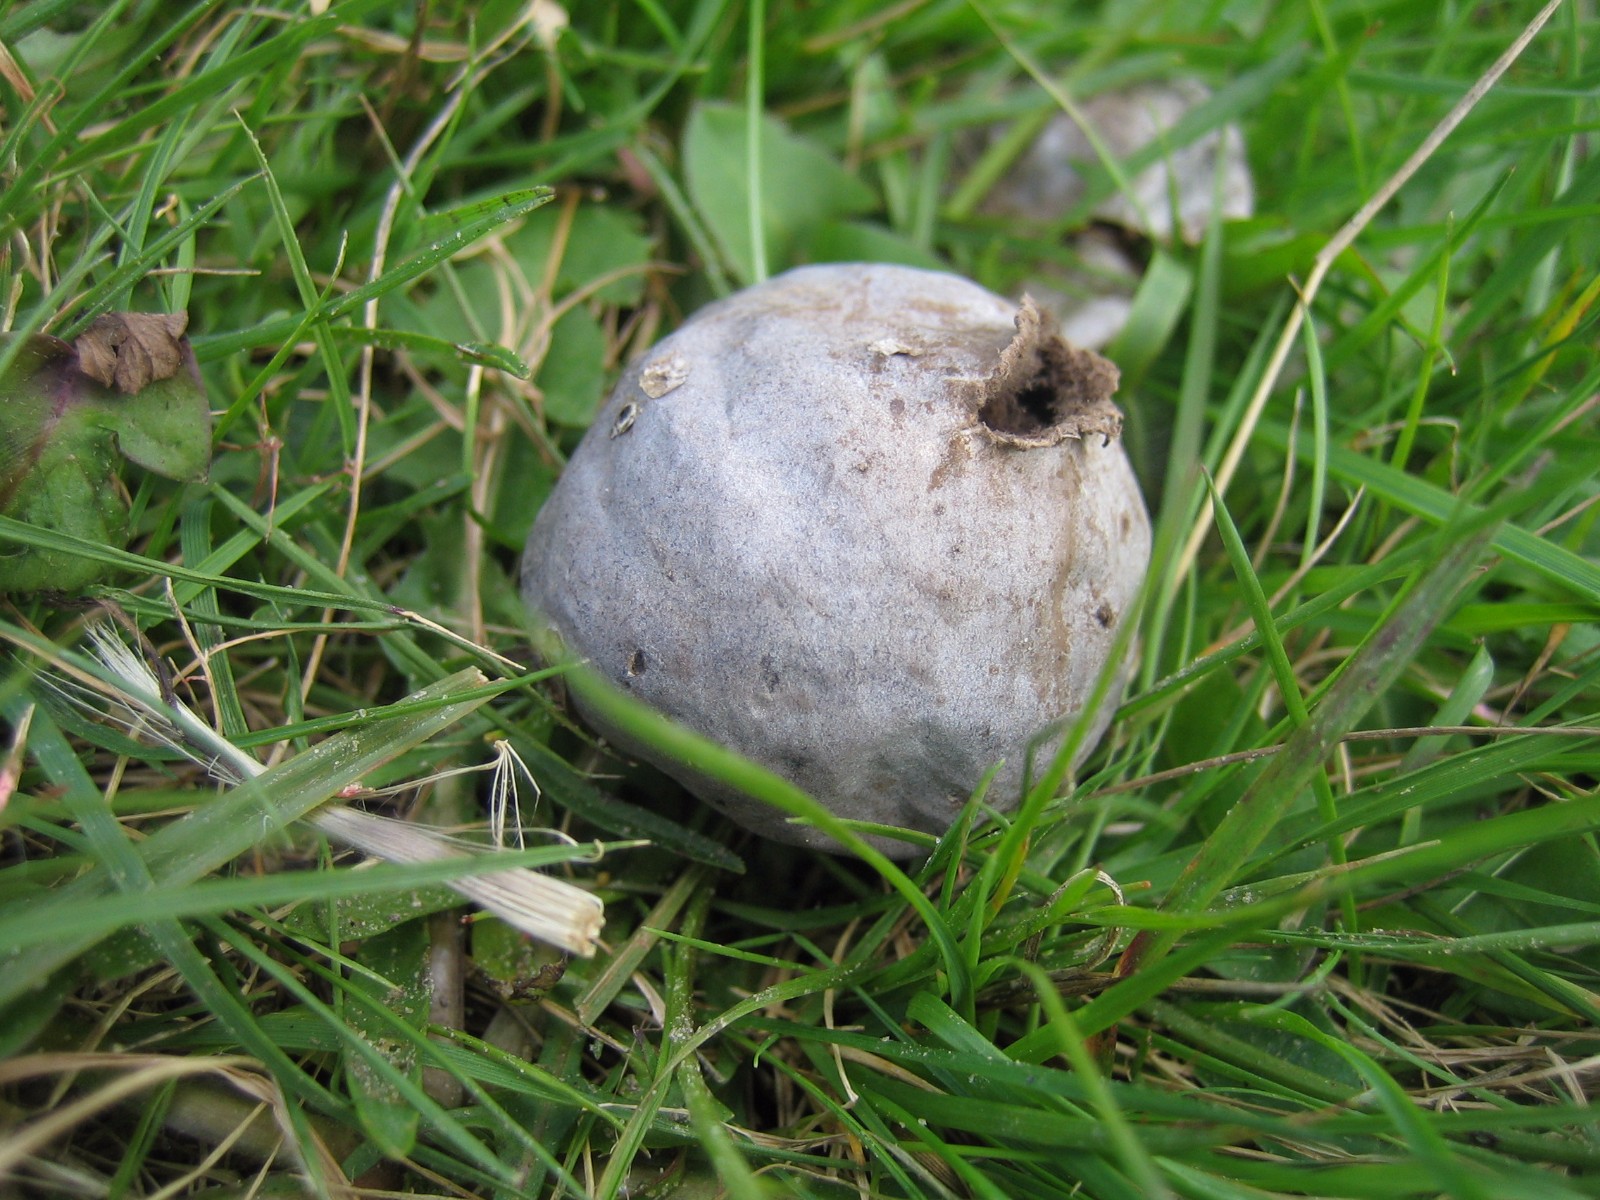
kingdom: Fungi
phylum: Basidiomycota
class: Agaricomycetes
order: Agaricales
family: Lycoperdaceae
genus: Bovista
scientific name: Bovista plumbea
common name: blygrå bovist
